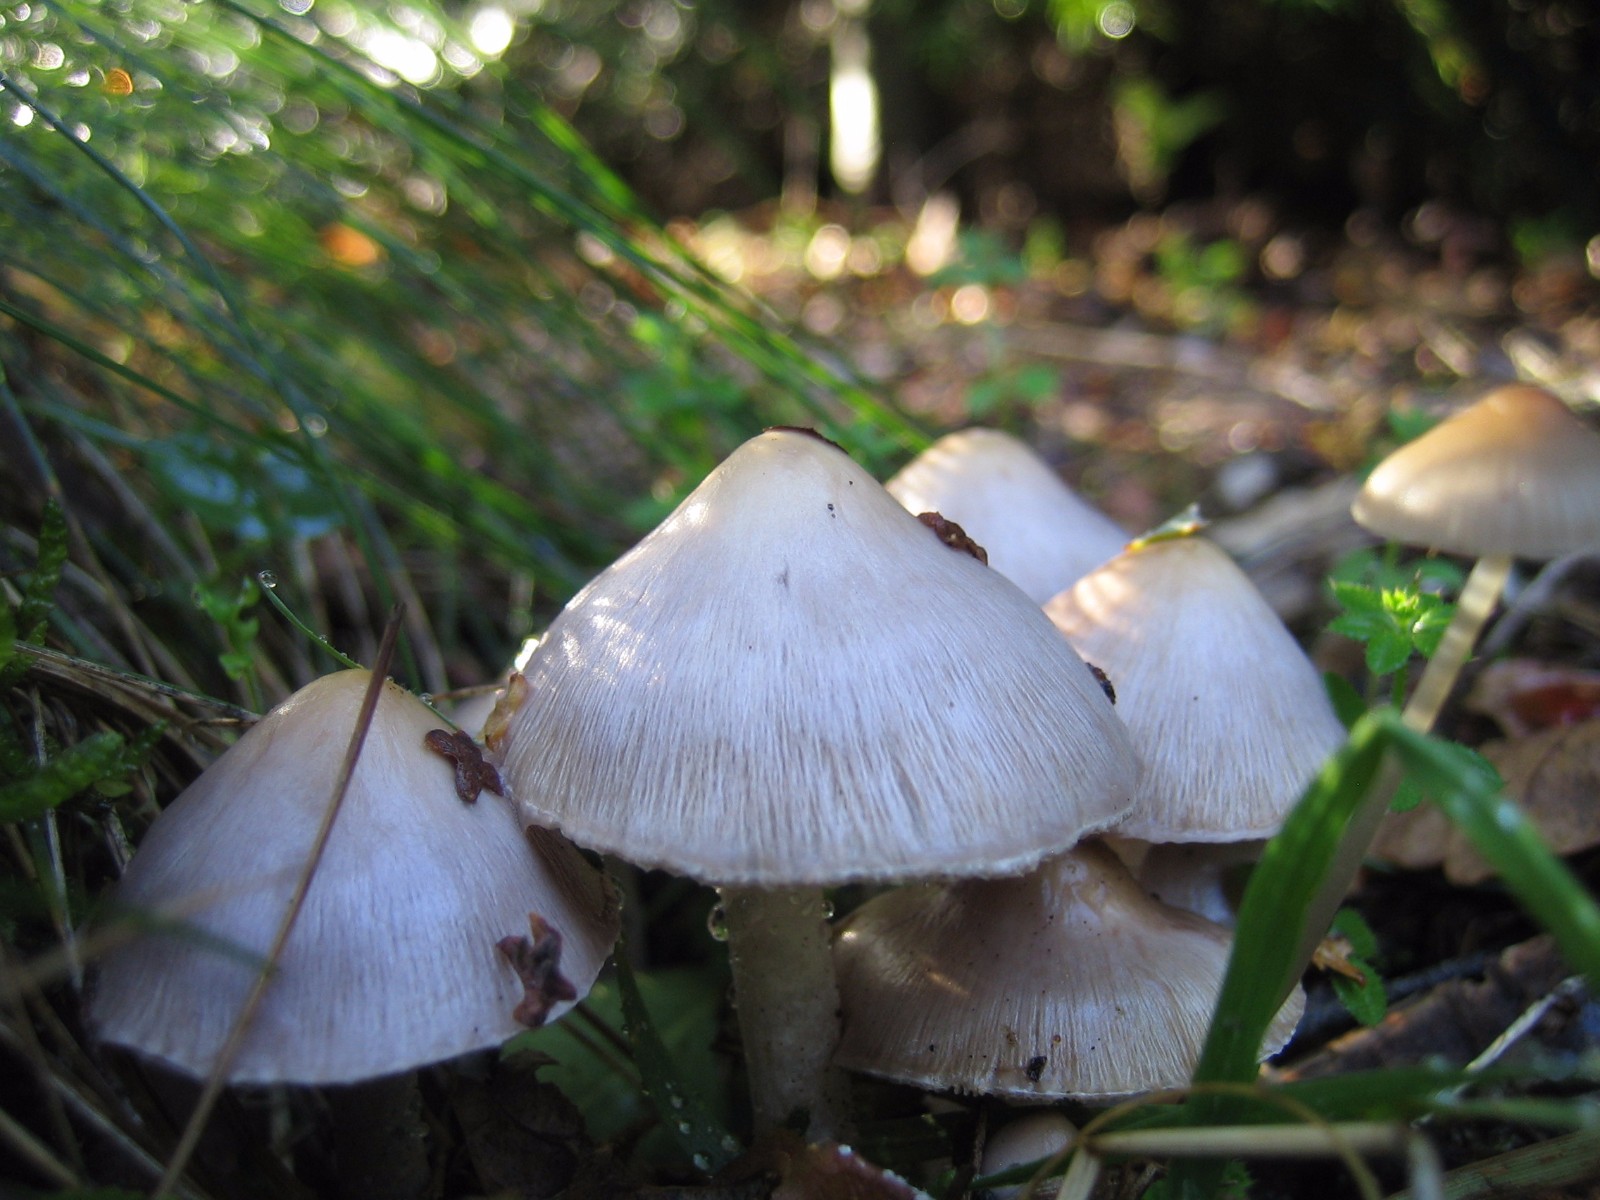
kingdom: Fungi
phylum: Basidiomycota
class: Agaricomycetes
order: Agaricales
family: Inocybaceae
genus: Inocybe
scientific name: Inocybe
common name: trævlhat
